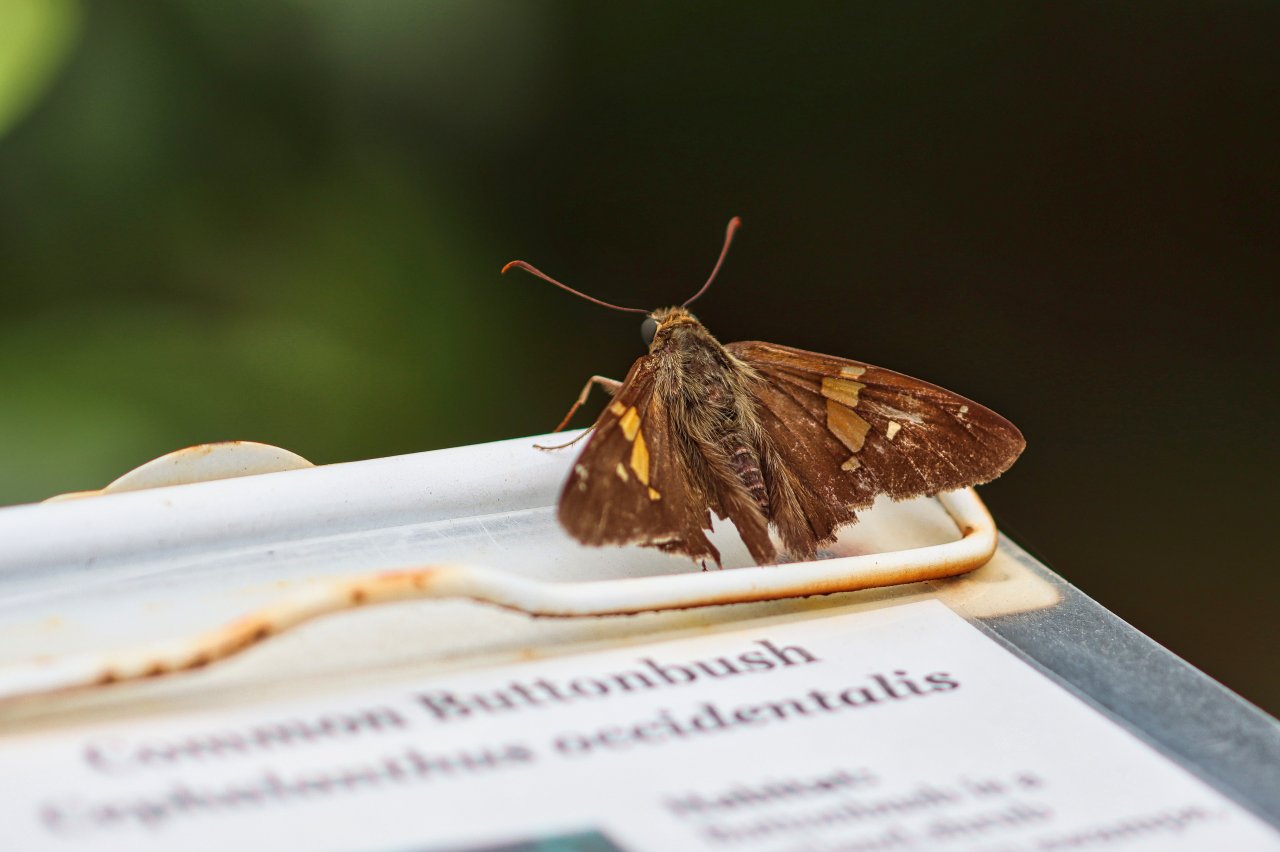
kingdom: Animalia
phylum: Arthropoda
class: Insecta
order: Lepidoptera
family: Hesperiidae
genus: Epargyreus
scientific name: Epargyreus clarus
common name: Silver-spotted Skipper
